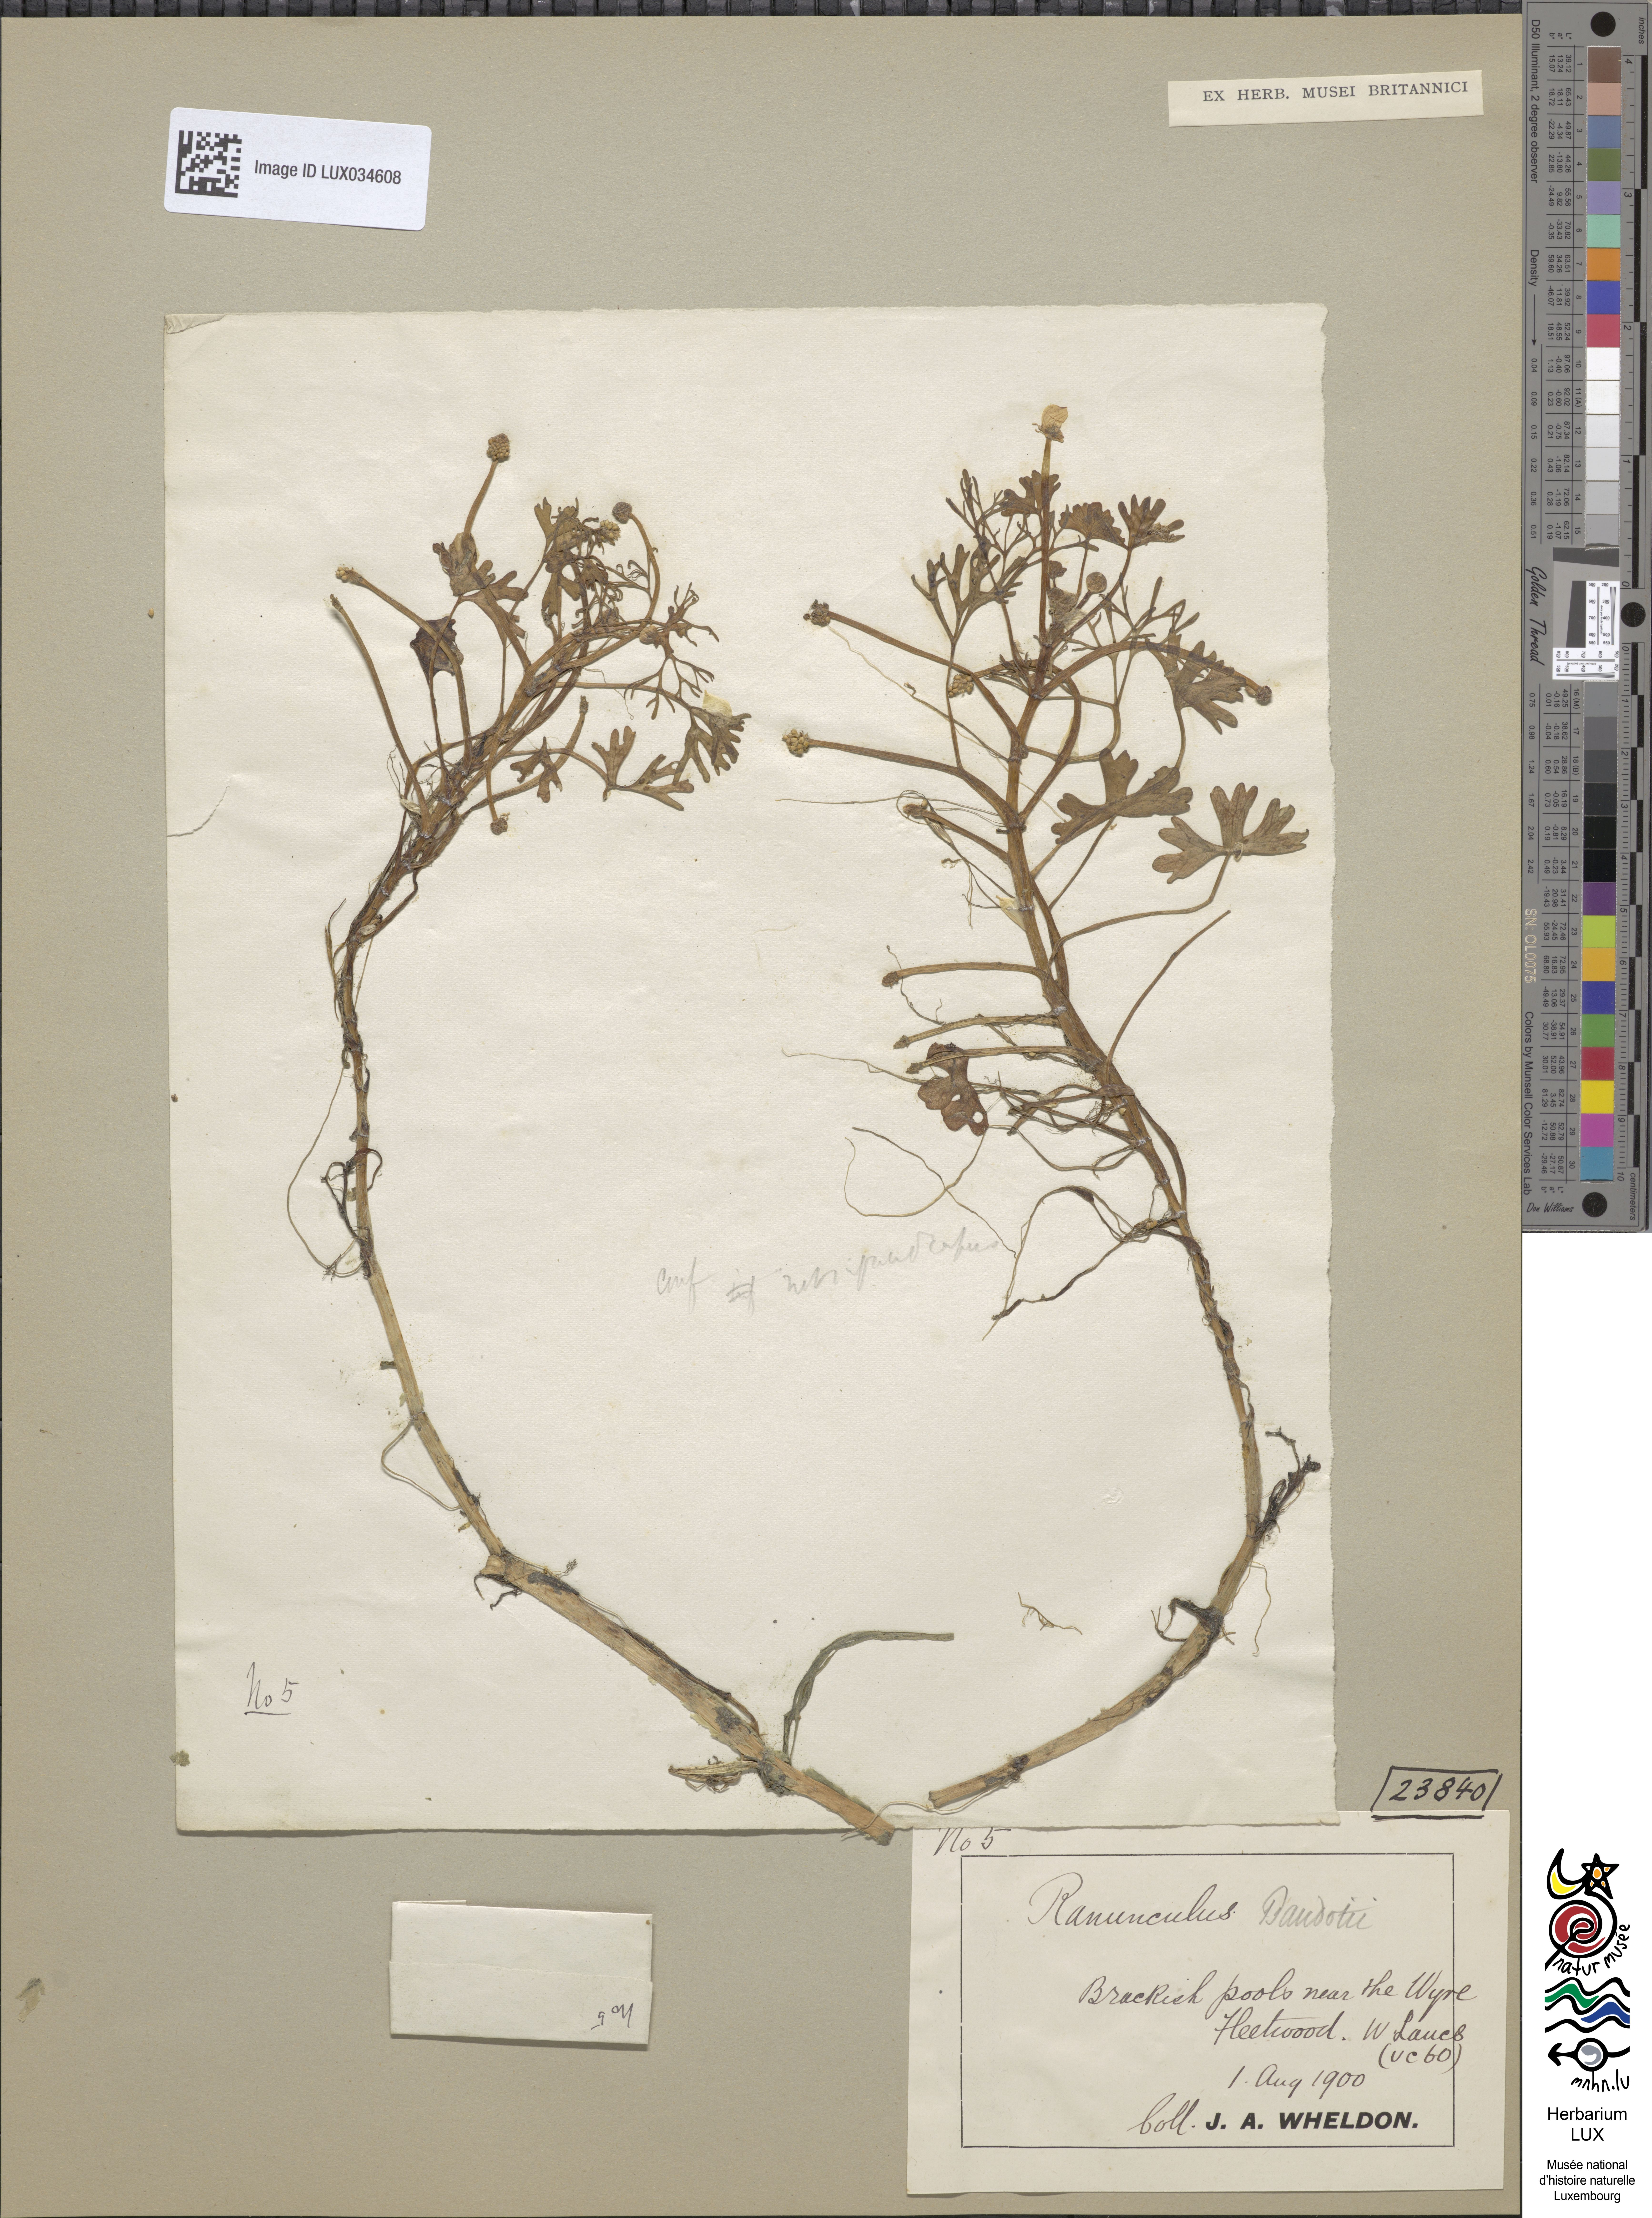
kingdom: Plantae
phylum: Tracheophyta
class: Magnoliopsida
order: Ranunculales
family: Ranunculaceae
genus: Ranunculus
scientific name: Ranunculus peltatus
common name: Pond water-crowfoot
